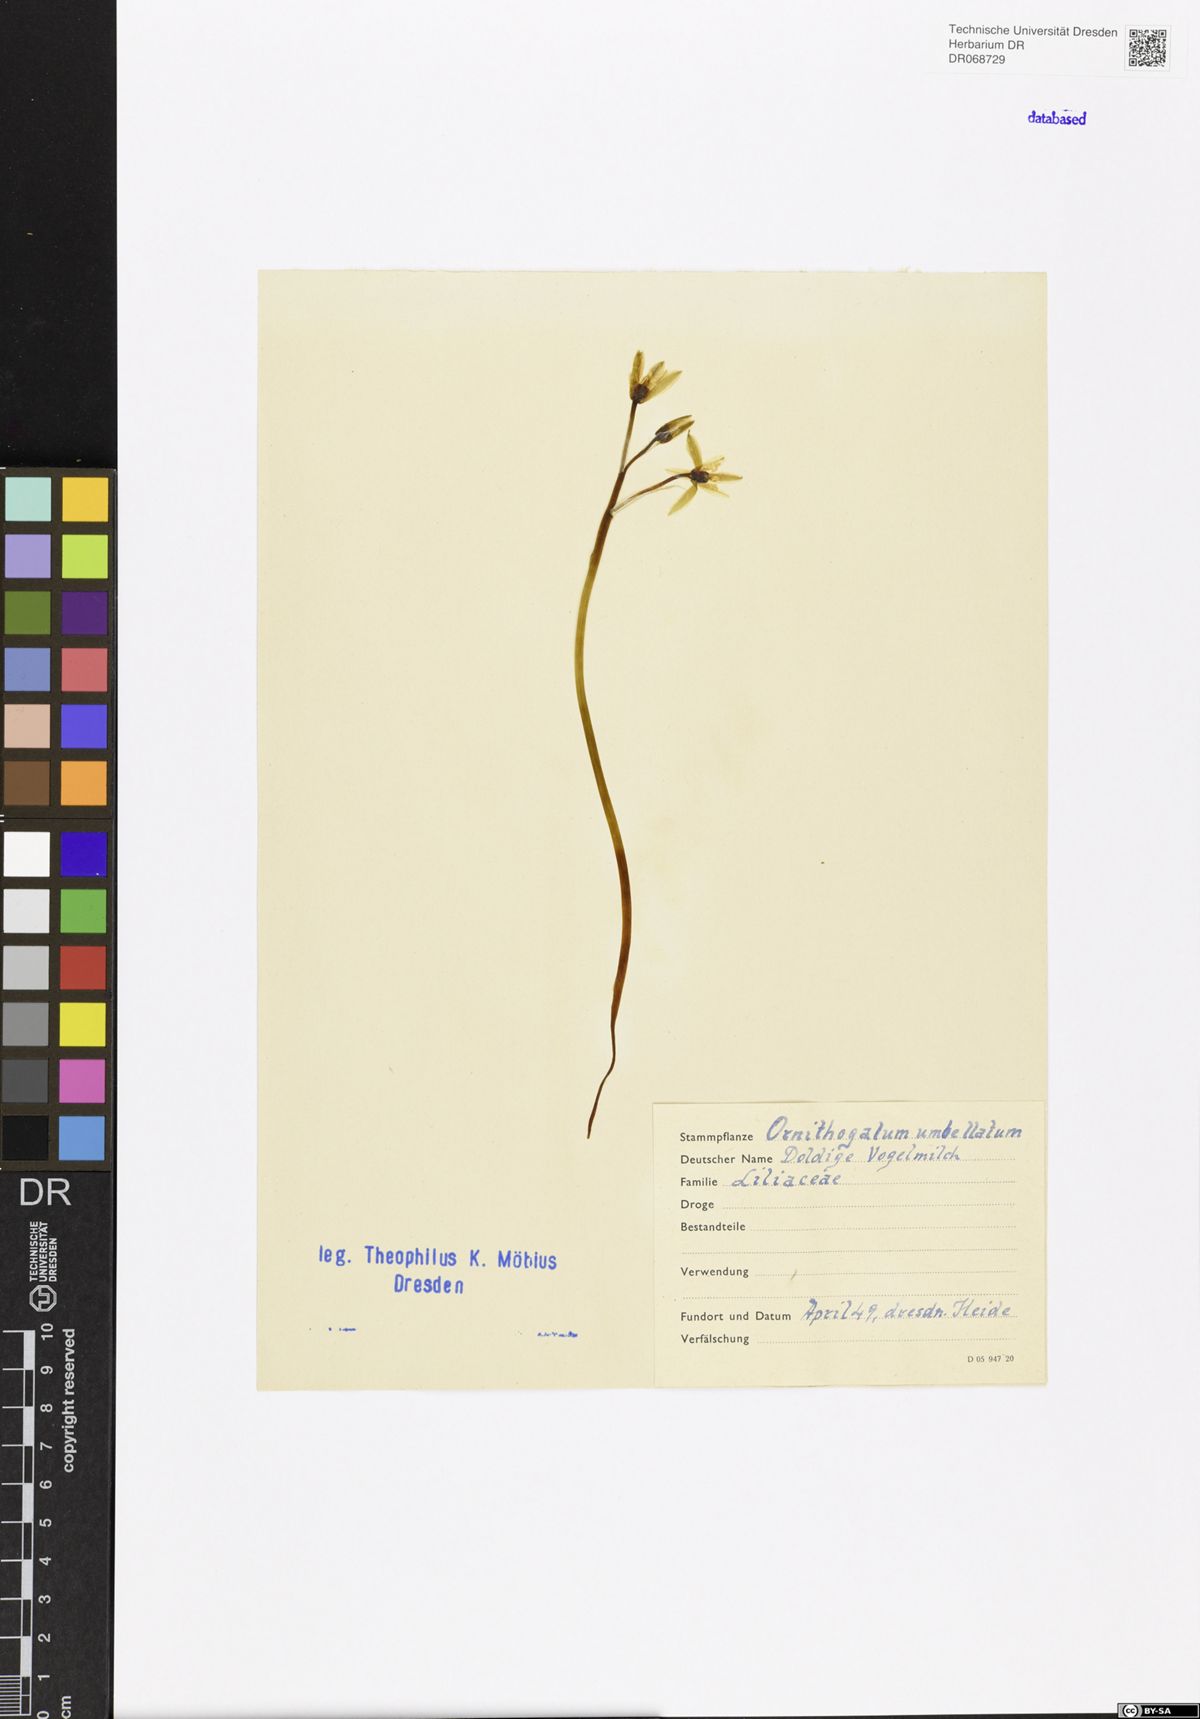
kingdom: Plantae
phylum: Tracheophyta
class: Liliopsida
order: Asparagales
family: Asparagaceae
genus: Ornithogalum
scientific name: Ornithogalum umbellatum
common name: Garden star-of-bethlehem
